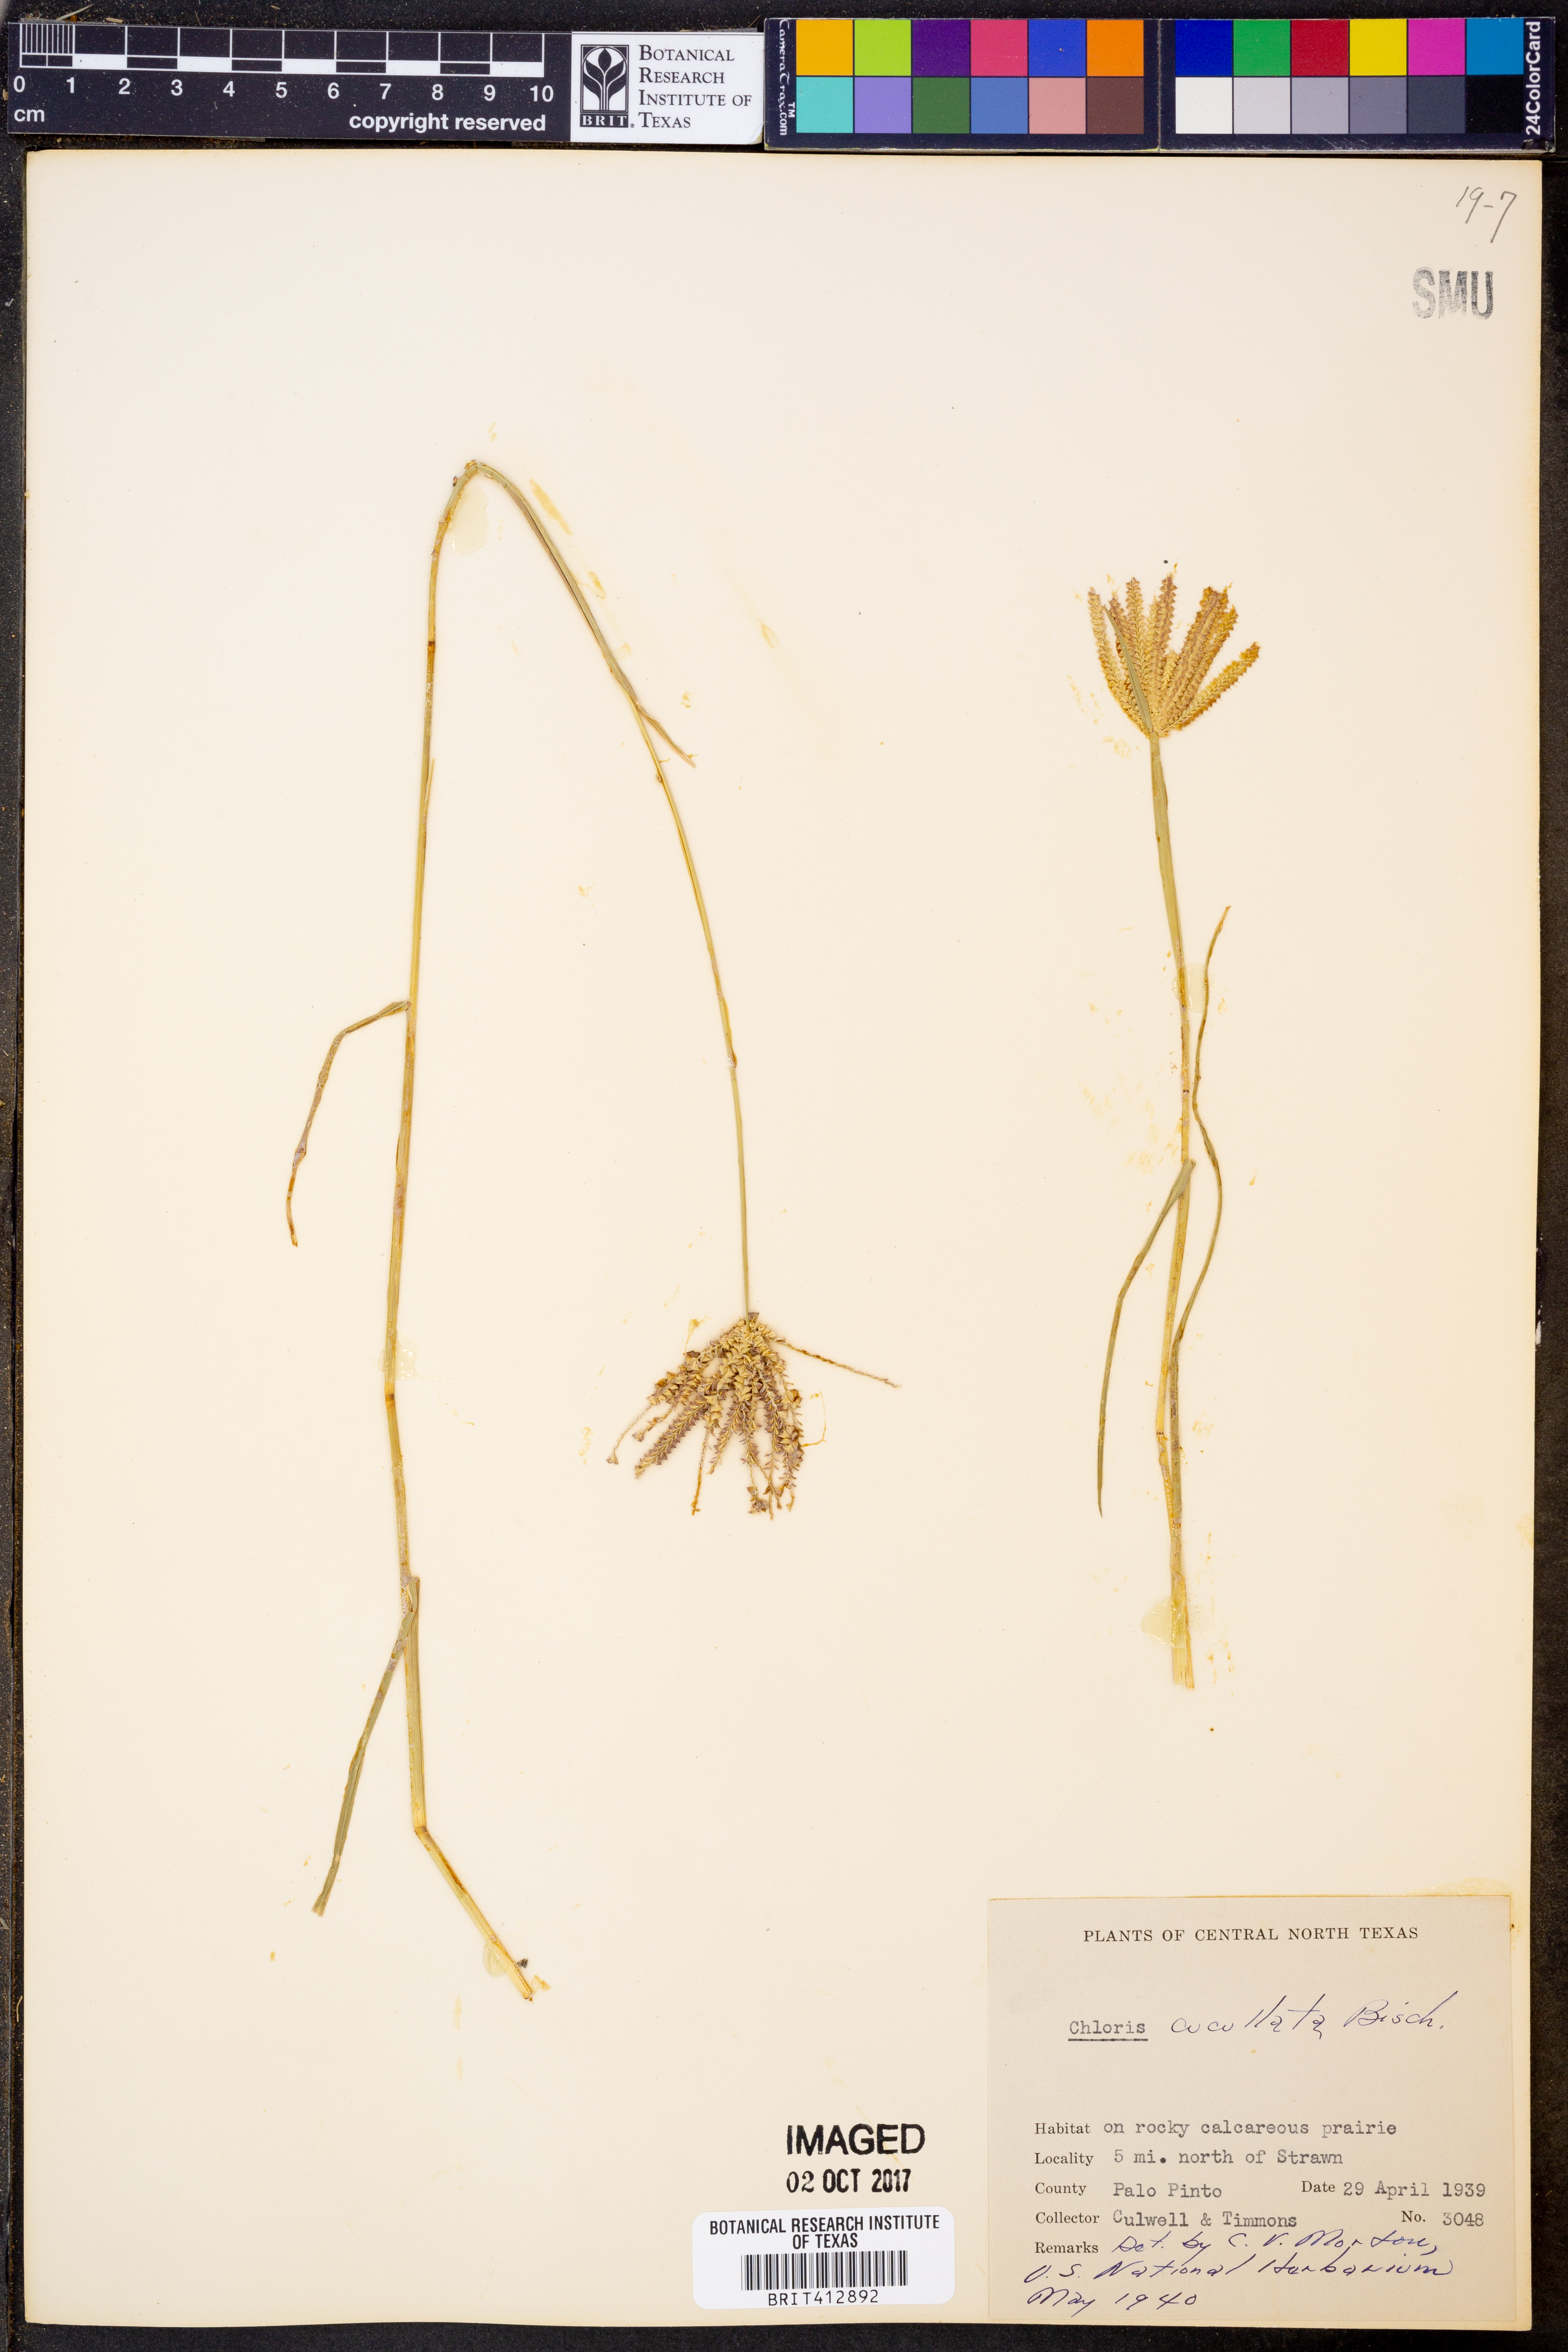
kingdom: Plantae
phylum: Tracheophyta
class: Liliopsida
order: Poales
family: Poaceae
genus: Chloris
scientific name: Chloris cucullata
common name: Hooded windmill grass
